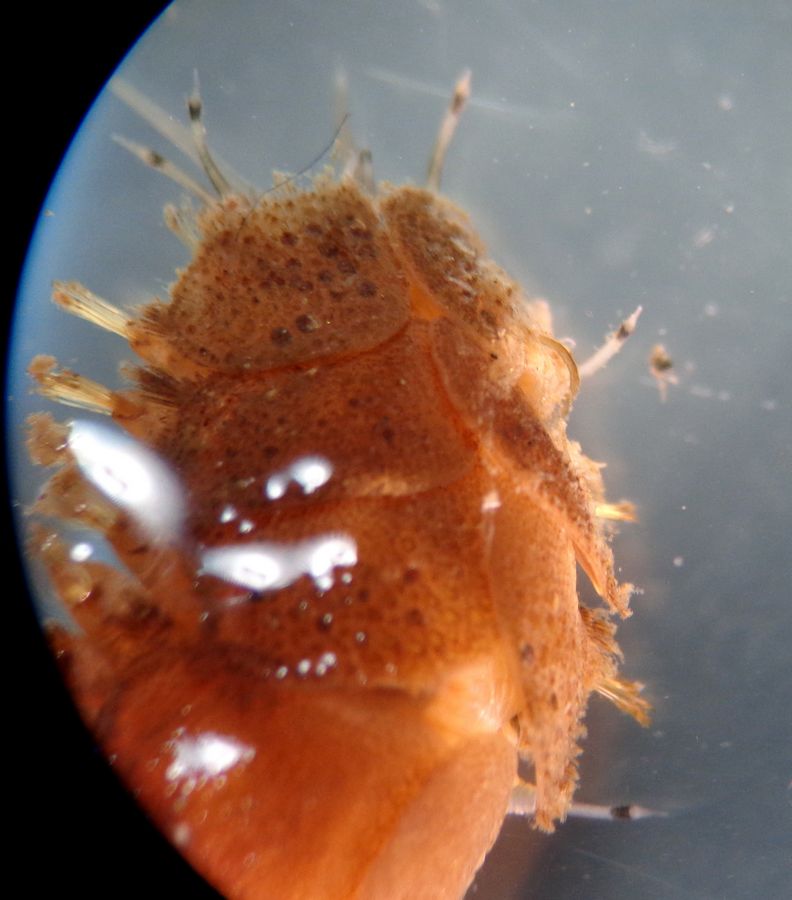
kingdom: Animalia
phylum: Annelida
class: Polychaeta
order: Phyllodocida
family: Polynoidae
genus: Lepidonotus
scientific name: Lepidonotus squamatus
